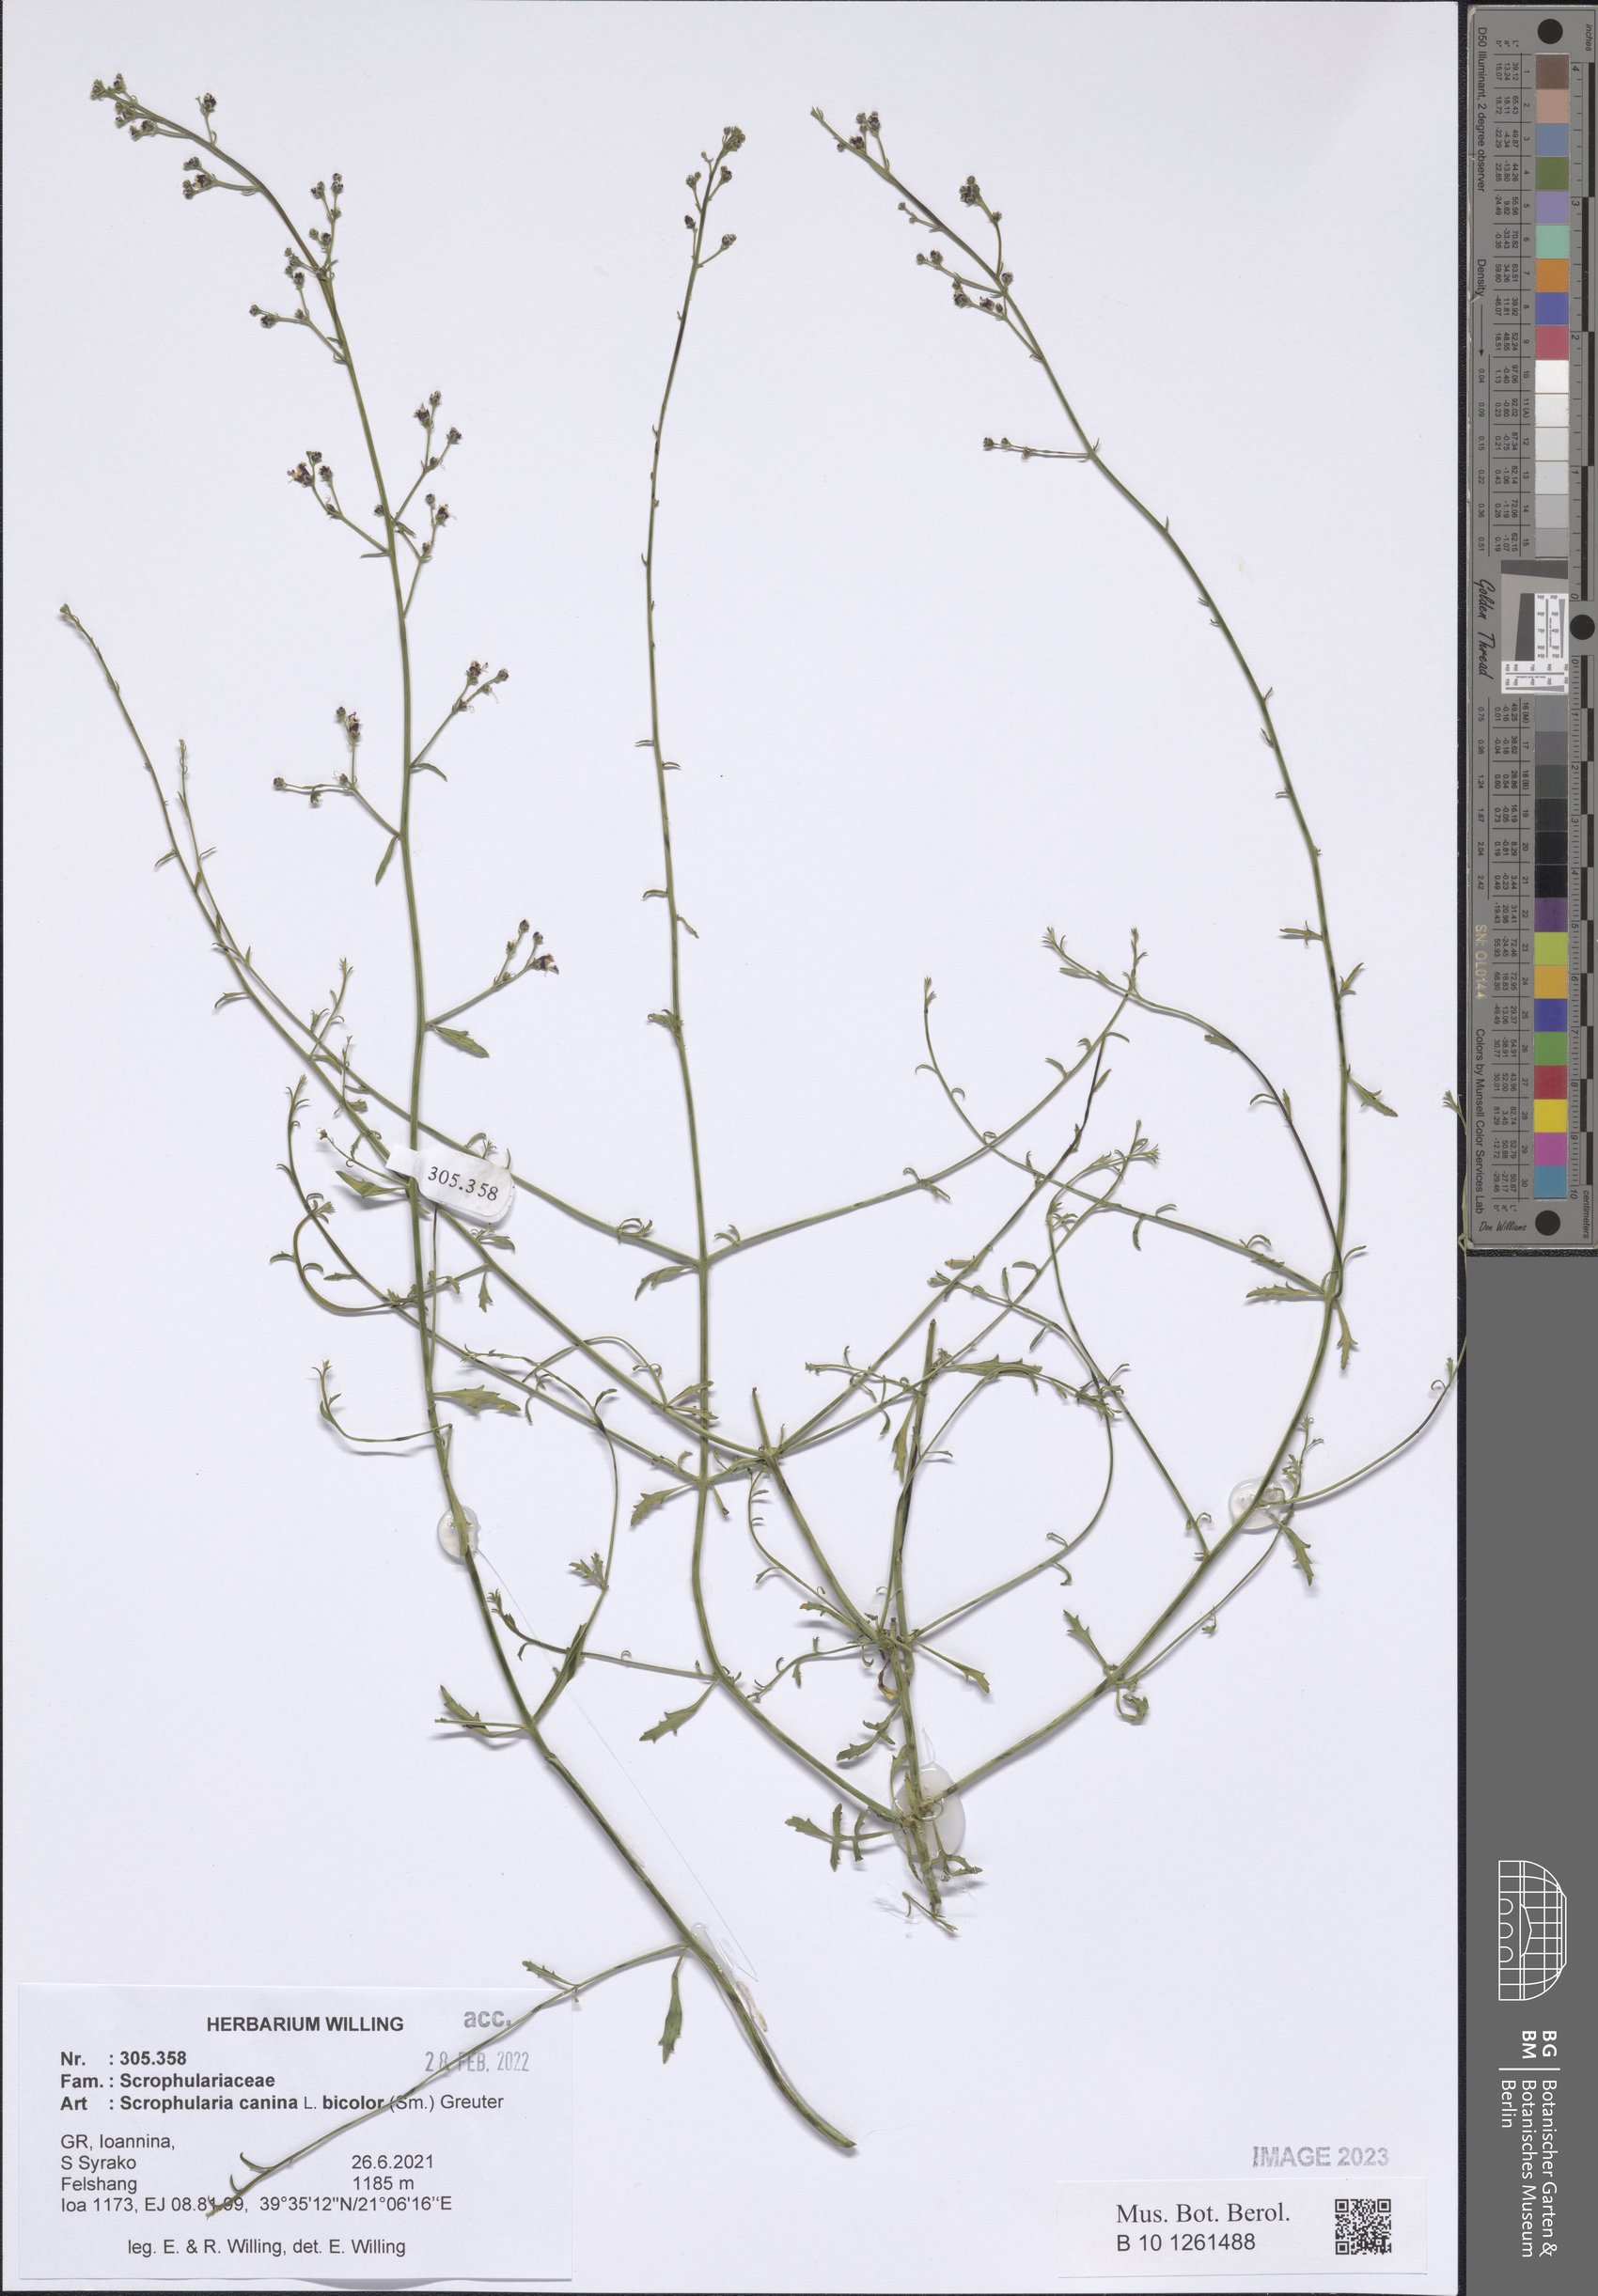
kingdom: Plantae
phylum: Tracheophyta
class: Magnoliopsida
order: Lamiales
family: Scrophulariaceae
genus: Scrophularia
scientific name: Scrophularia canina
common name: French figwort
